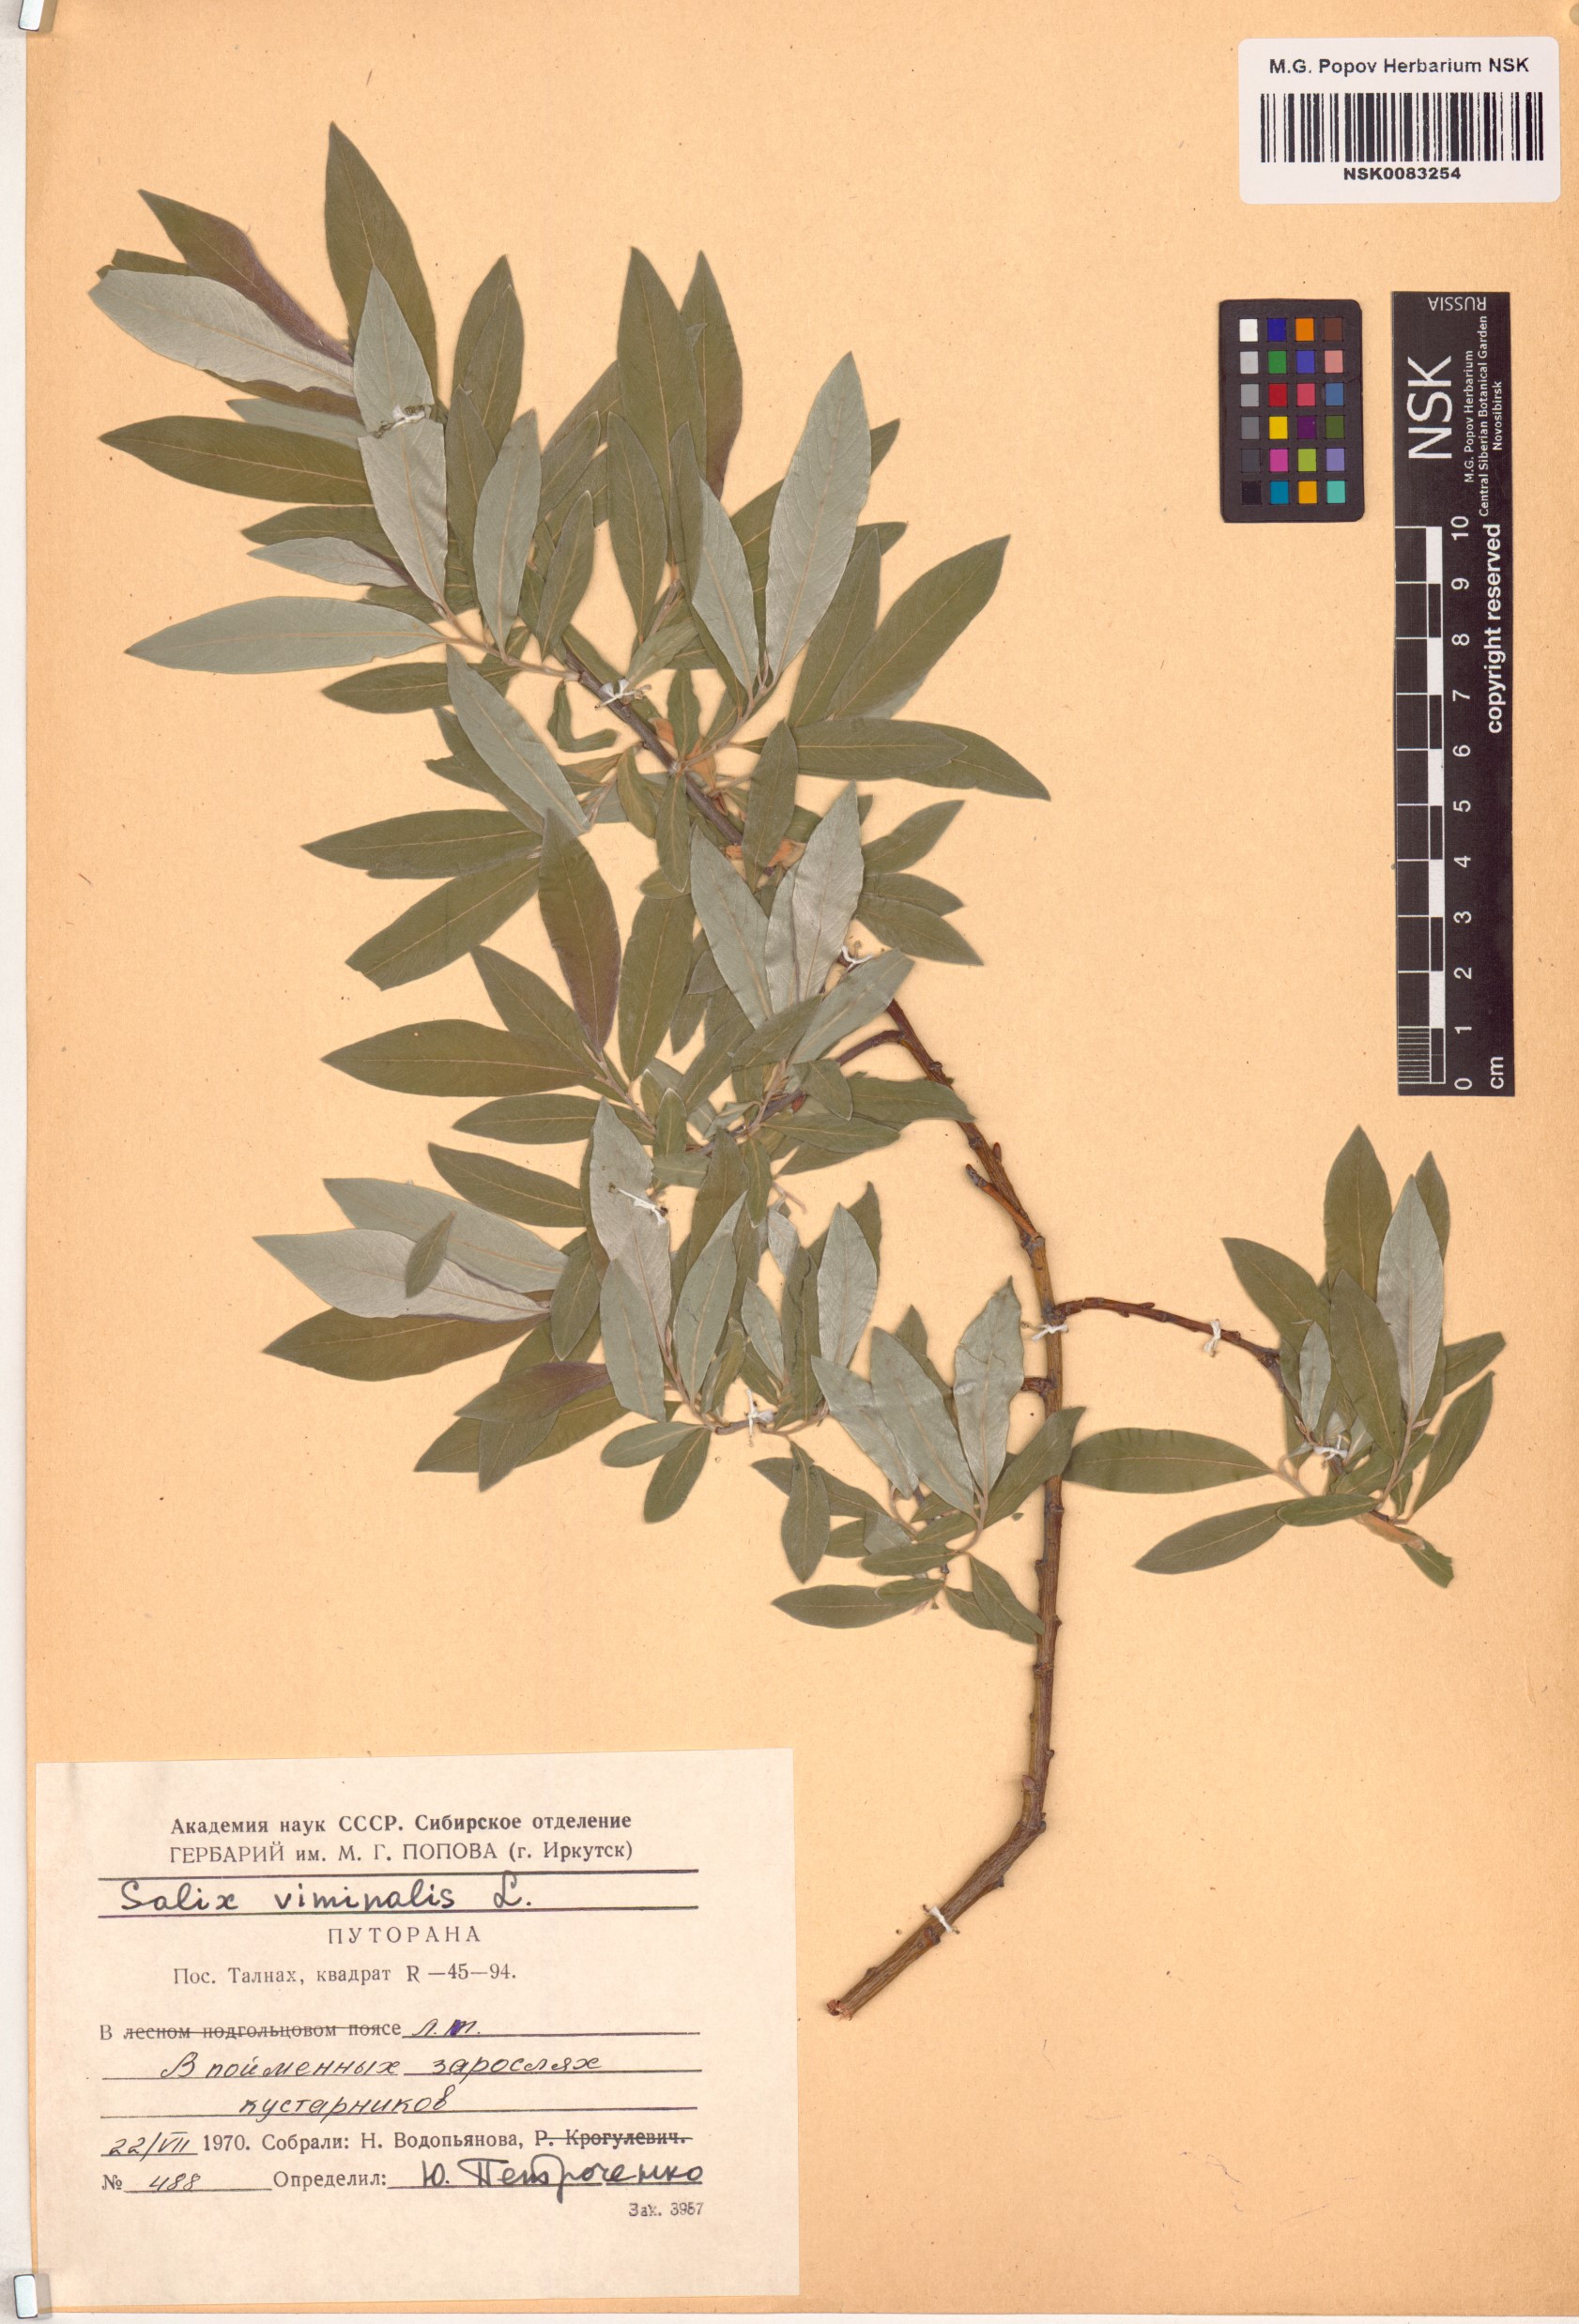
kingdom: Plantae
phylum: Tracheophyta
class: Magnoliopsida
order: Malpighiales
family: Salicaceae
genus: Salix
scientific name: Salix viminalis
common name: Osier
